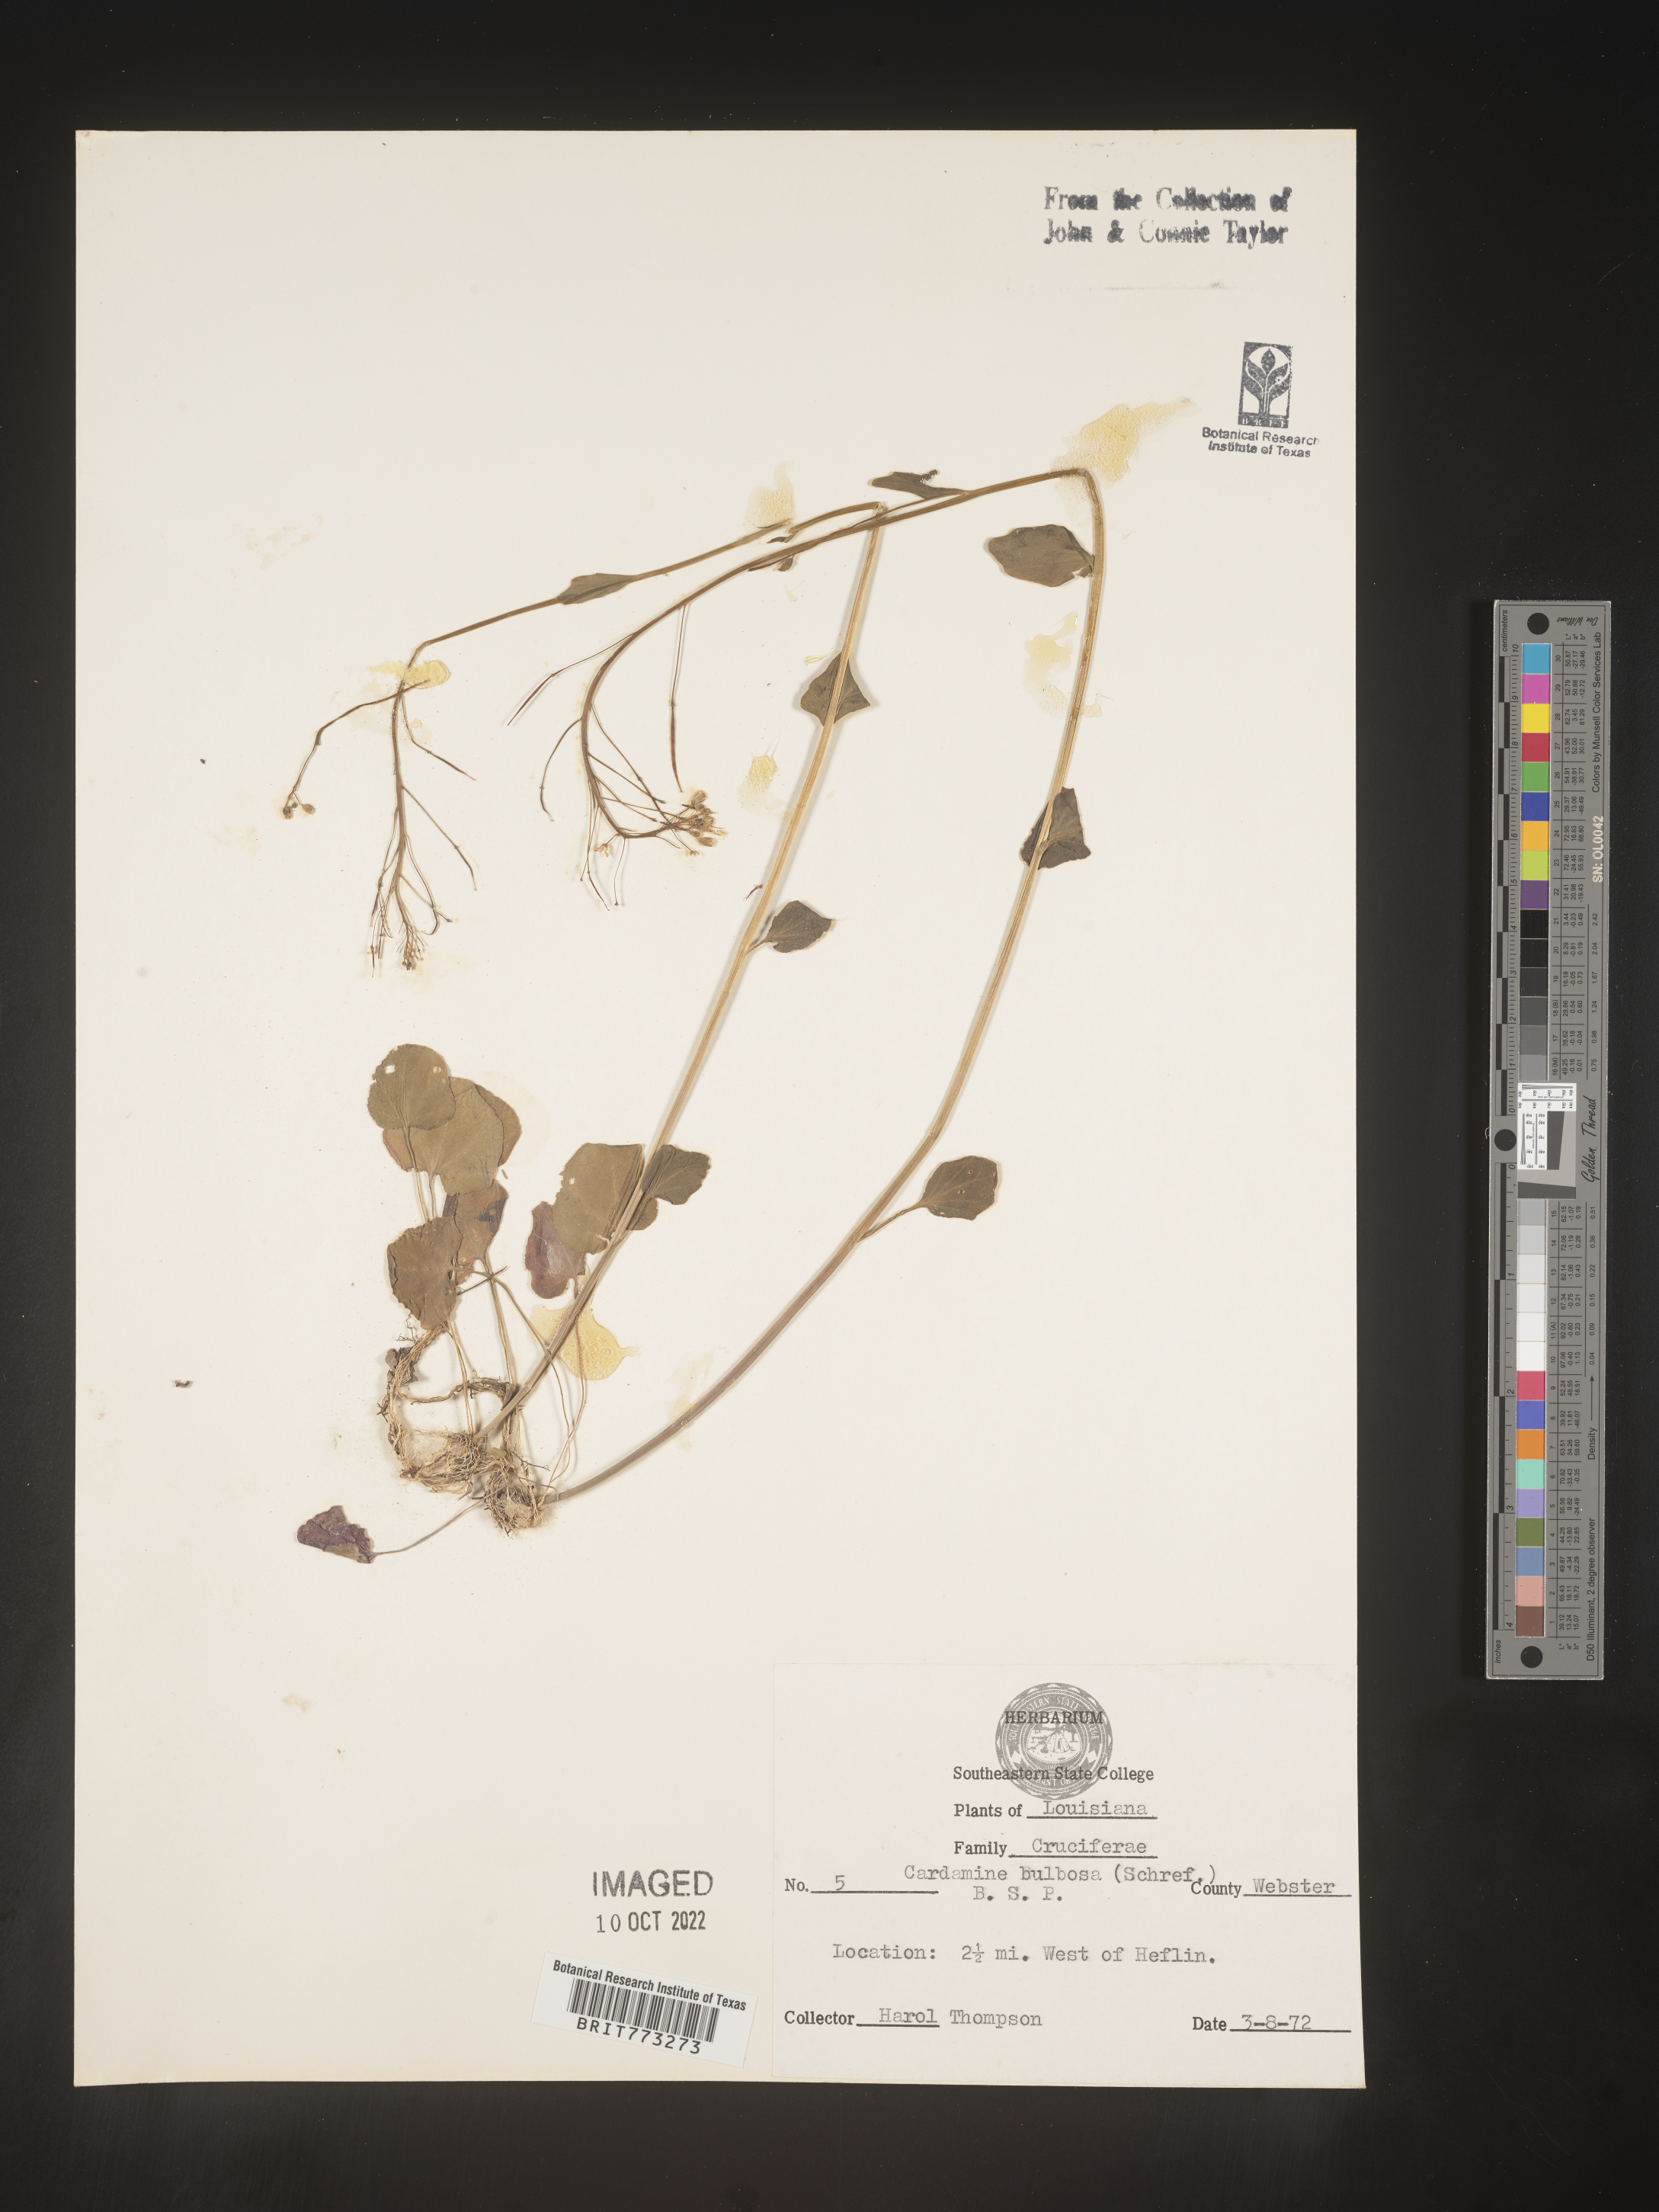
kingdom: Plantae
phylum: Tracheophyta
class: Magnoliopsida
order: Brassicales
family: Brassicaceae
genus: Cardamine
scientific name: Cardamine bulbosa
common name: Spring cress
